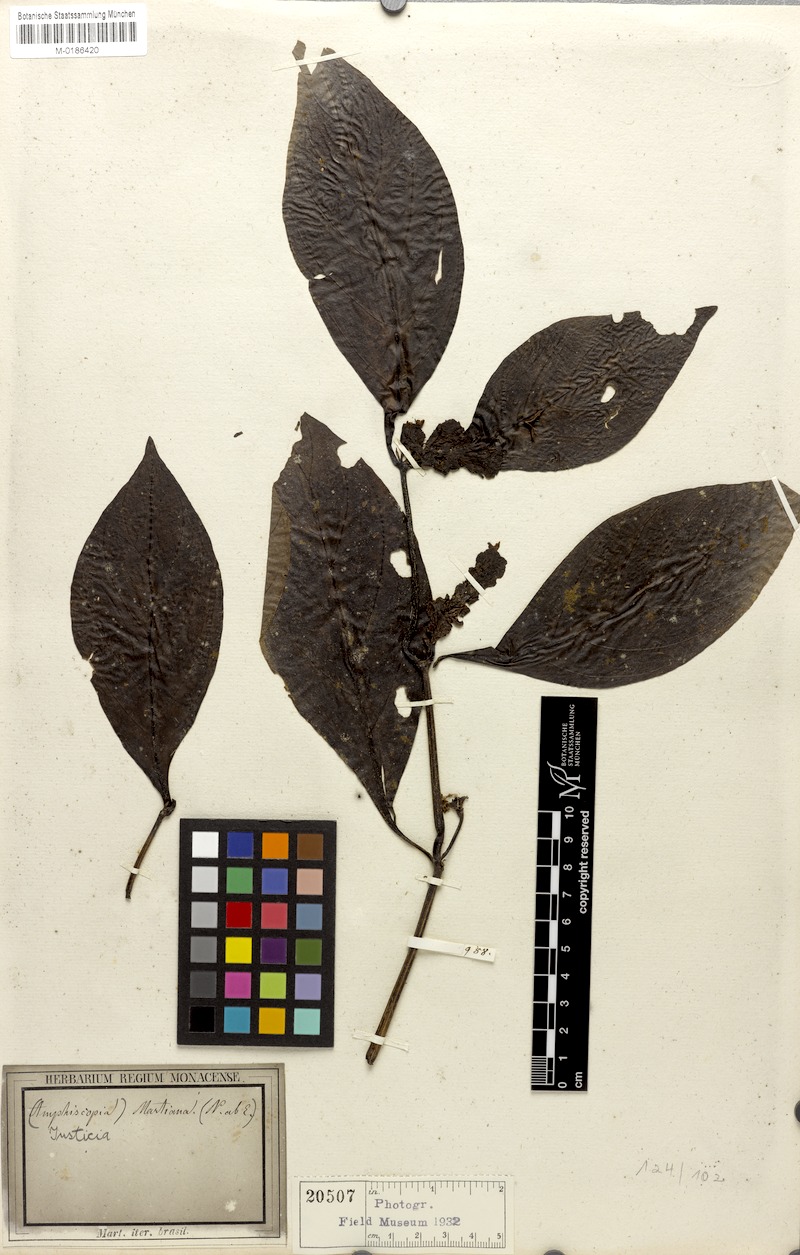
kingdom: Plantae
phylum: Tracheophyta
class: Magnoliopsida
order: Lamiales
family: Acanthaceae
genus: Justicia
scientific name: Justicia martiana
